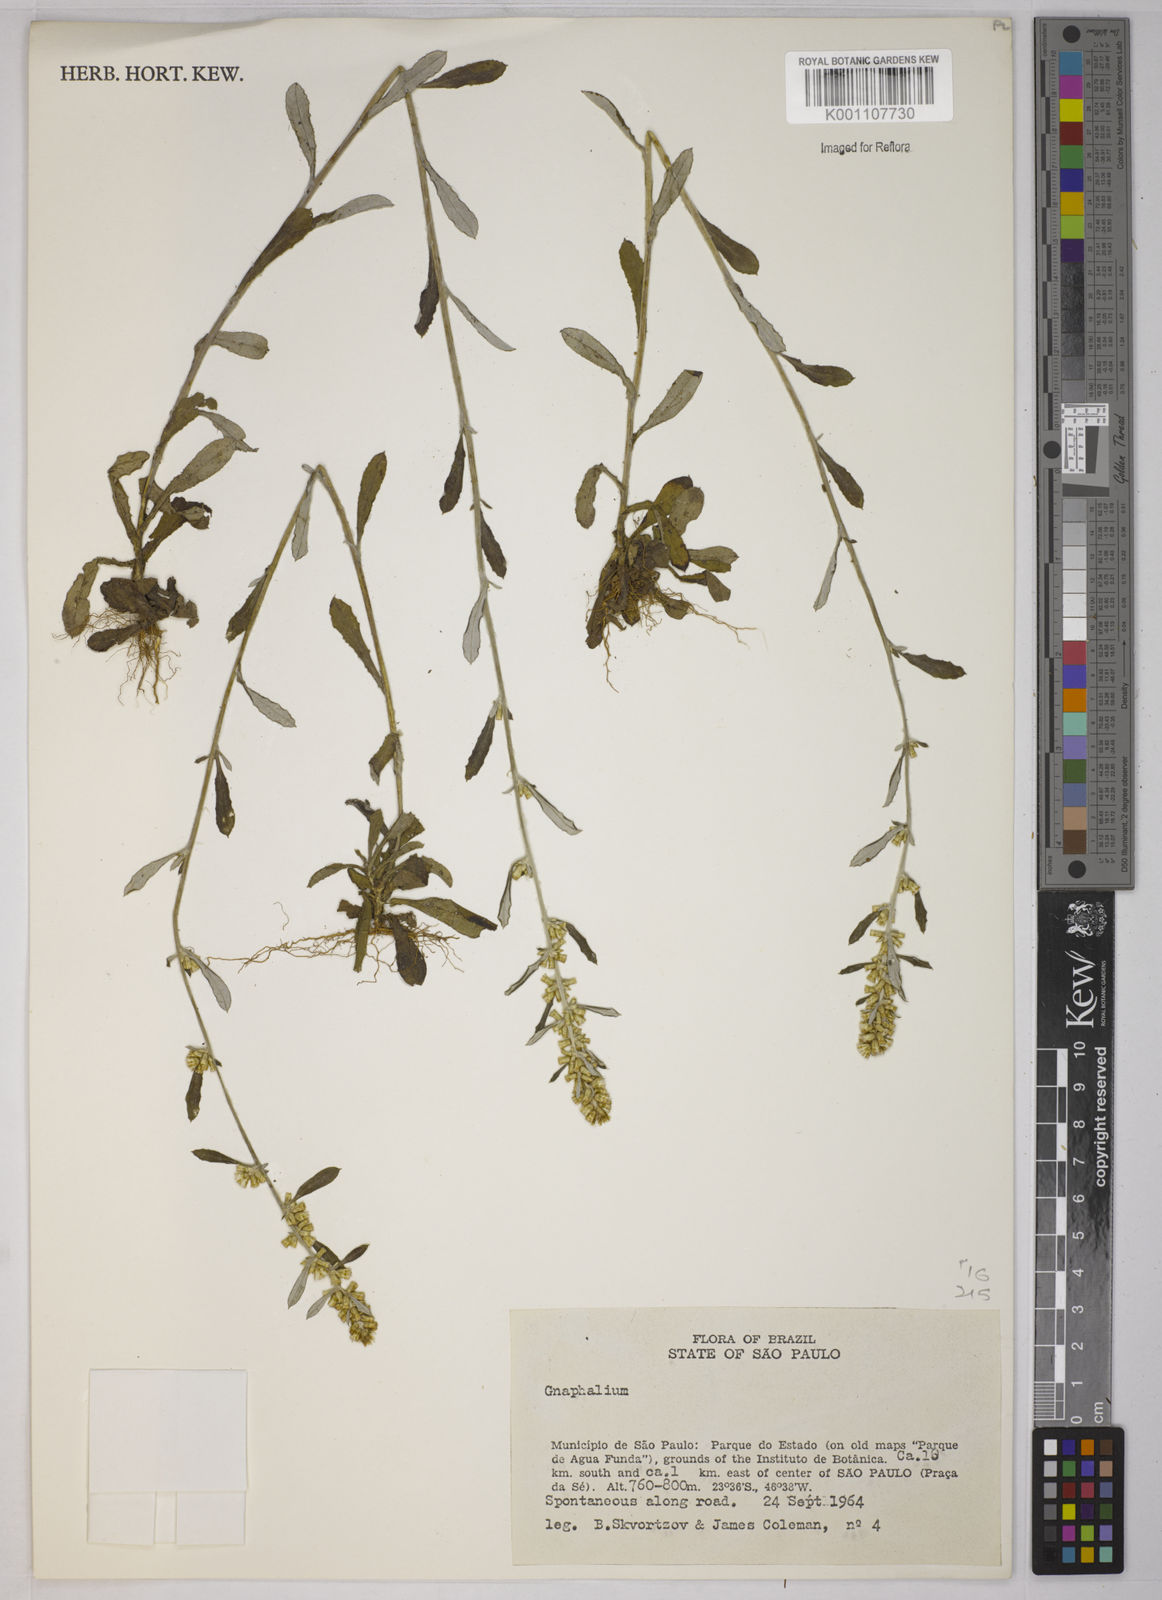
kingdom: Plantae
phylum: Tracheophyta
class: Magnoliopsida
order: Asterales
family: Asteraceae
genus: Gnaphalium
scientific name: Gnaphalium
